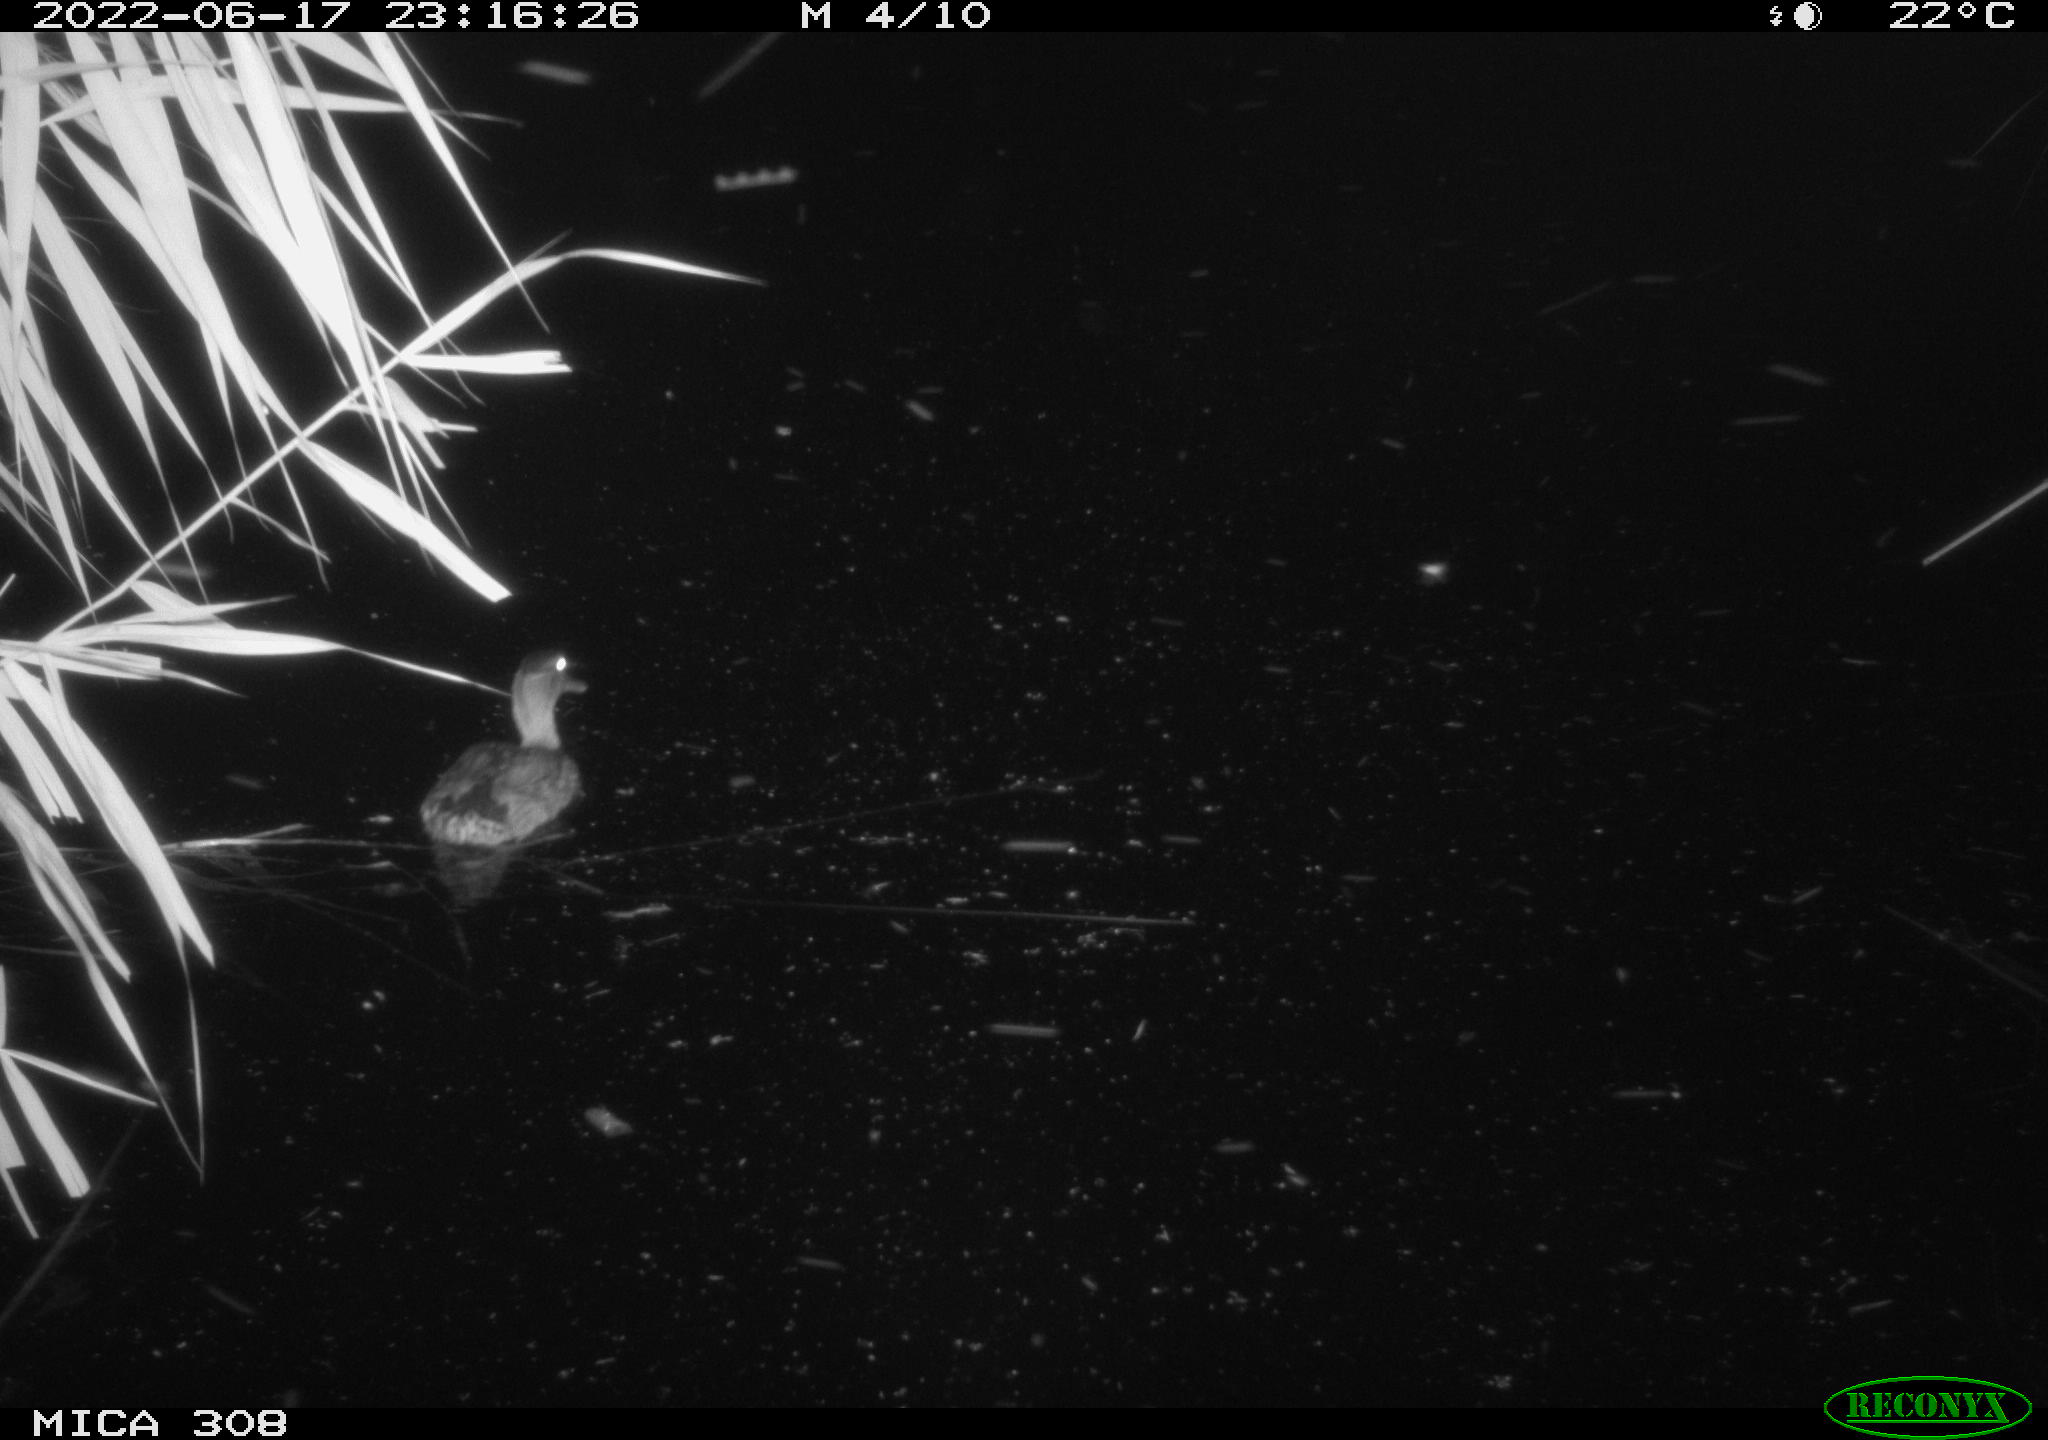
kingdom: Animalia
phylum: Chordata
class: Aves
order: Anseriformes
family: Anatidae
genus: Anas
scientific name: Anas platyrhynchos
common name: Mallard
